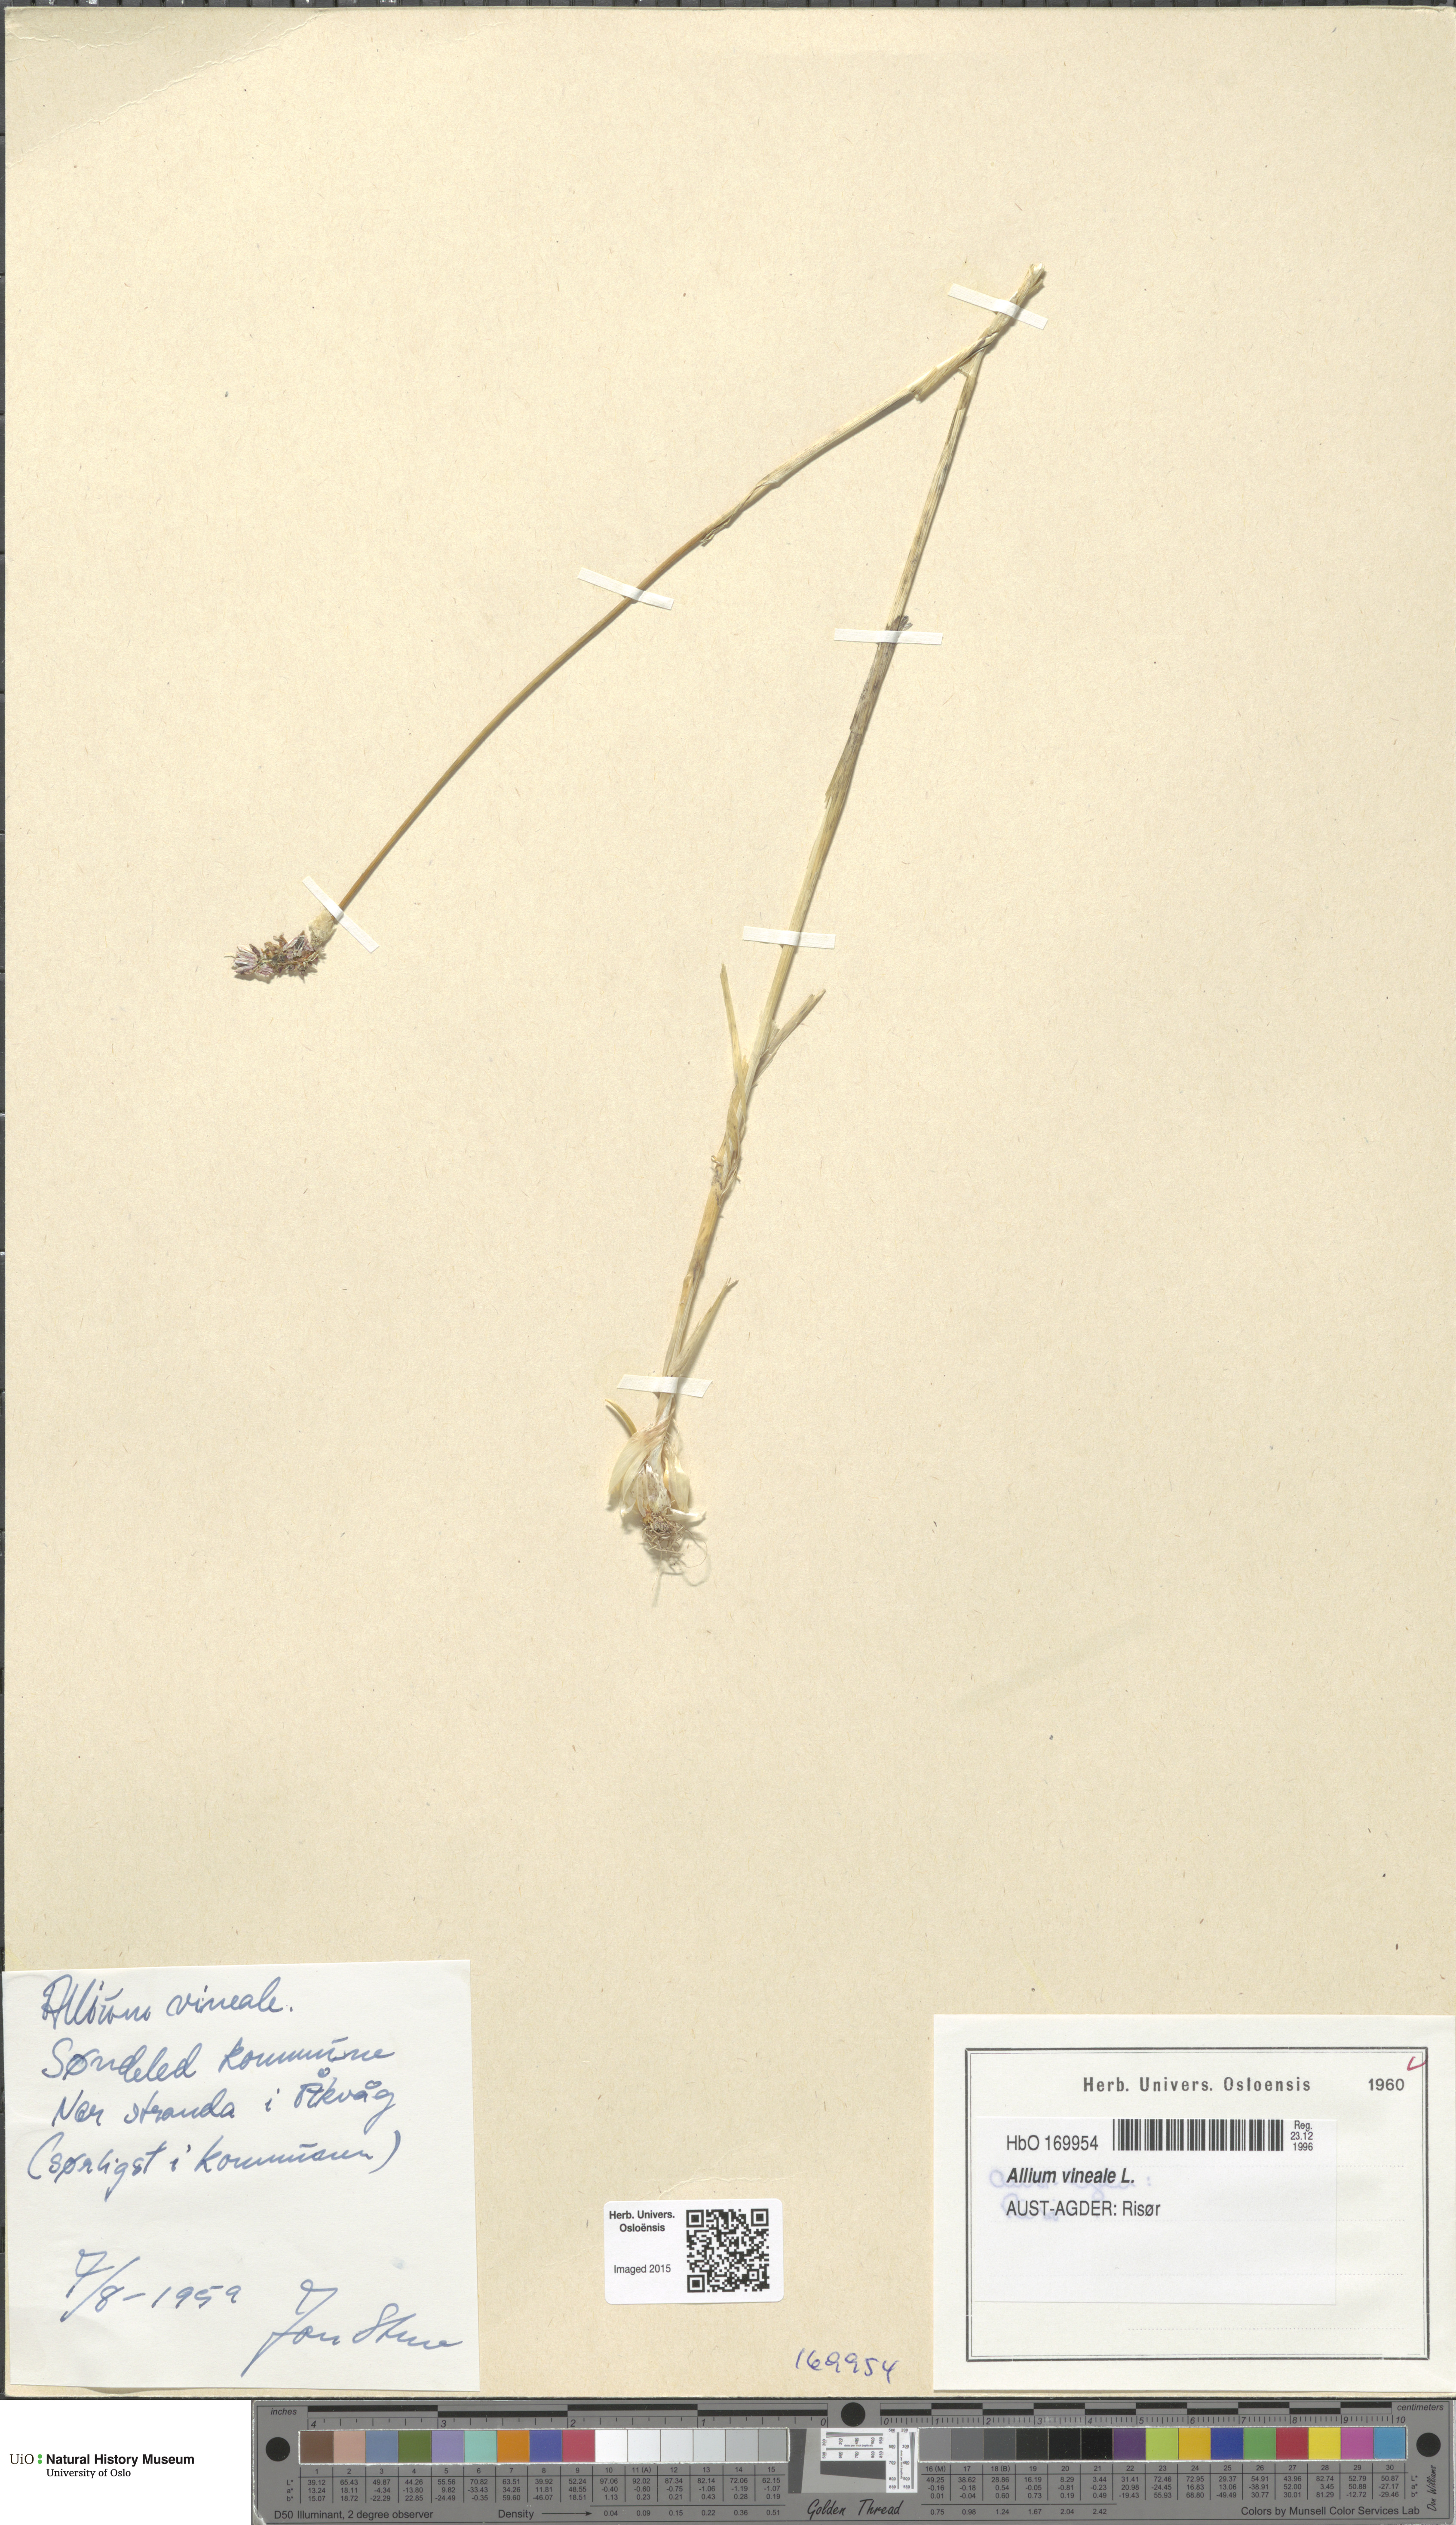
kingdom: Plantae
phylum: Tracheophyta
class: Liliopsida
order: Asparagales
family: Amaryllidaceae
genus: Allium
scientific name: Allium vineale
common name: Crow garlic
